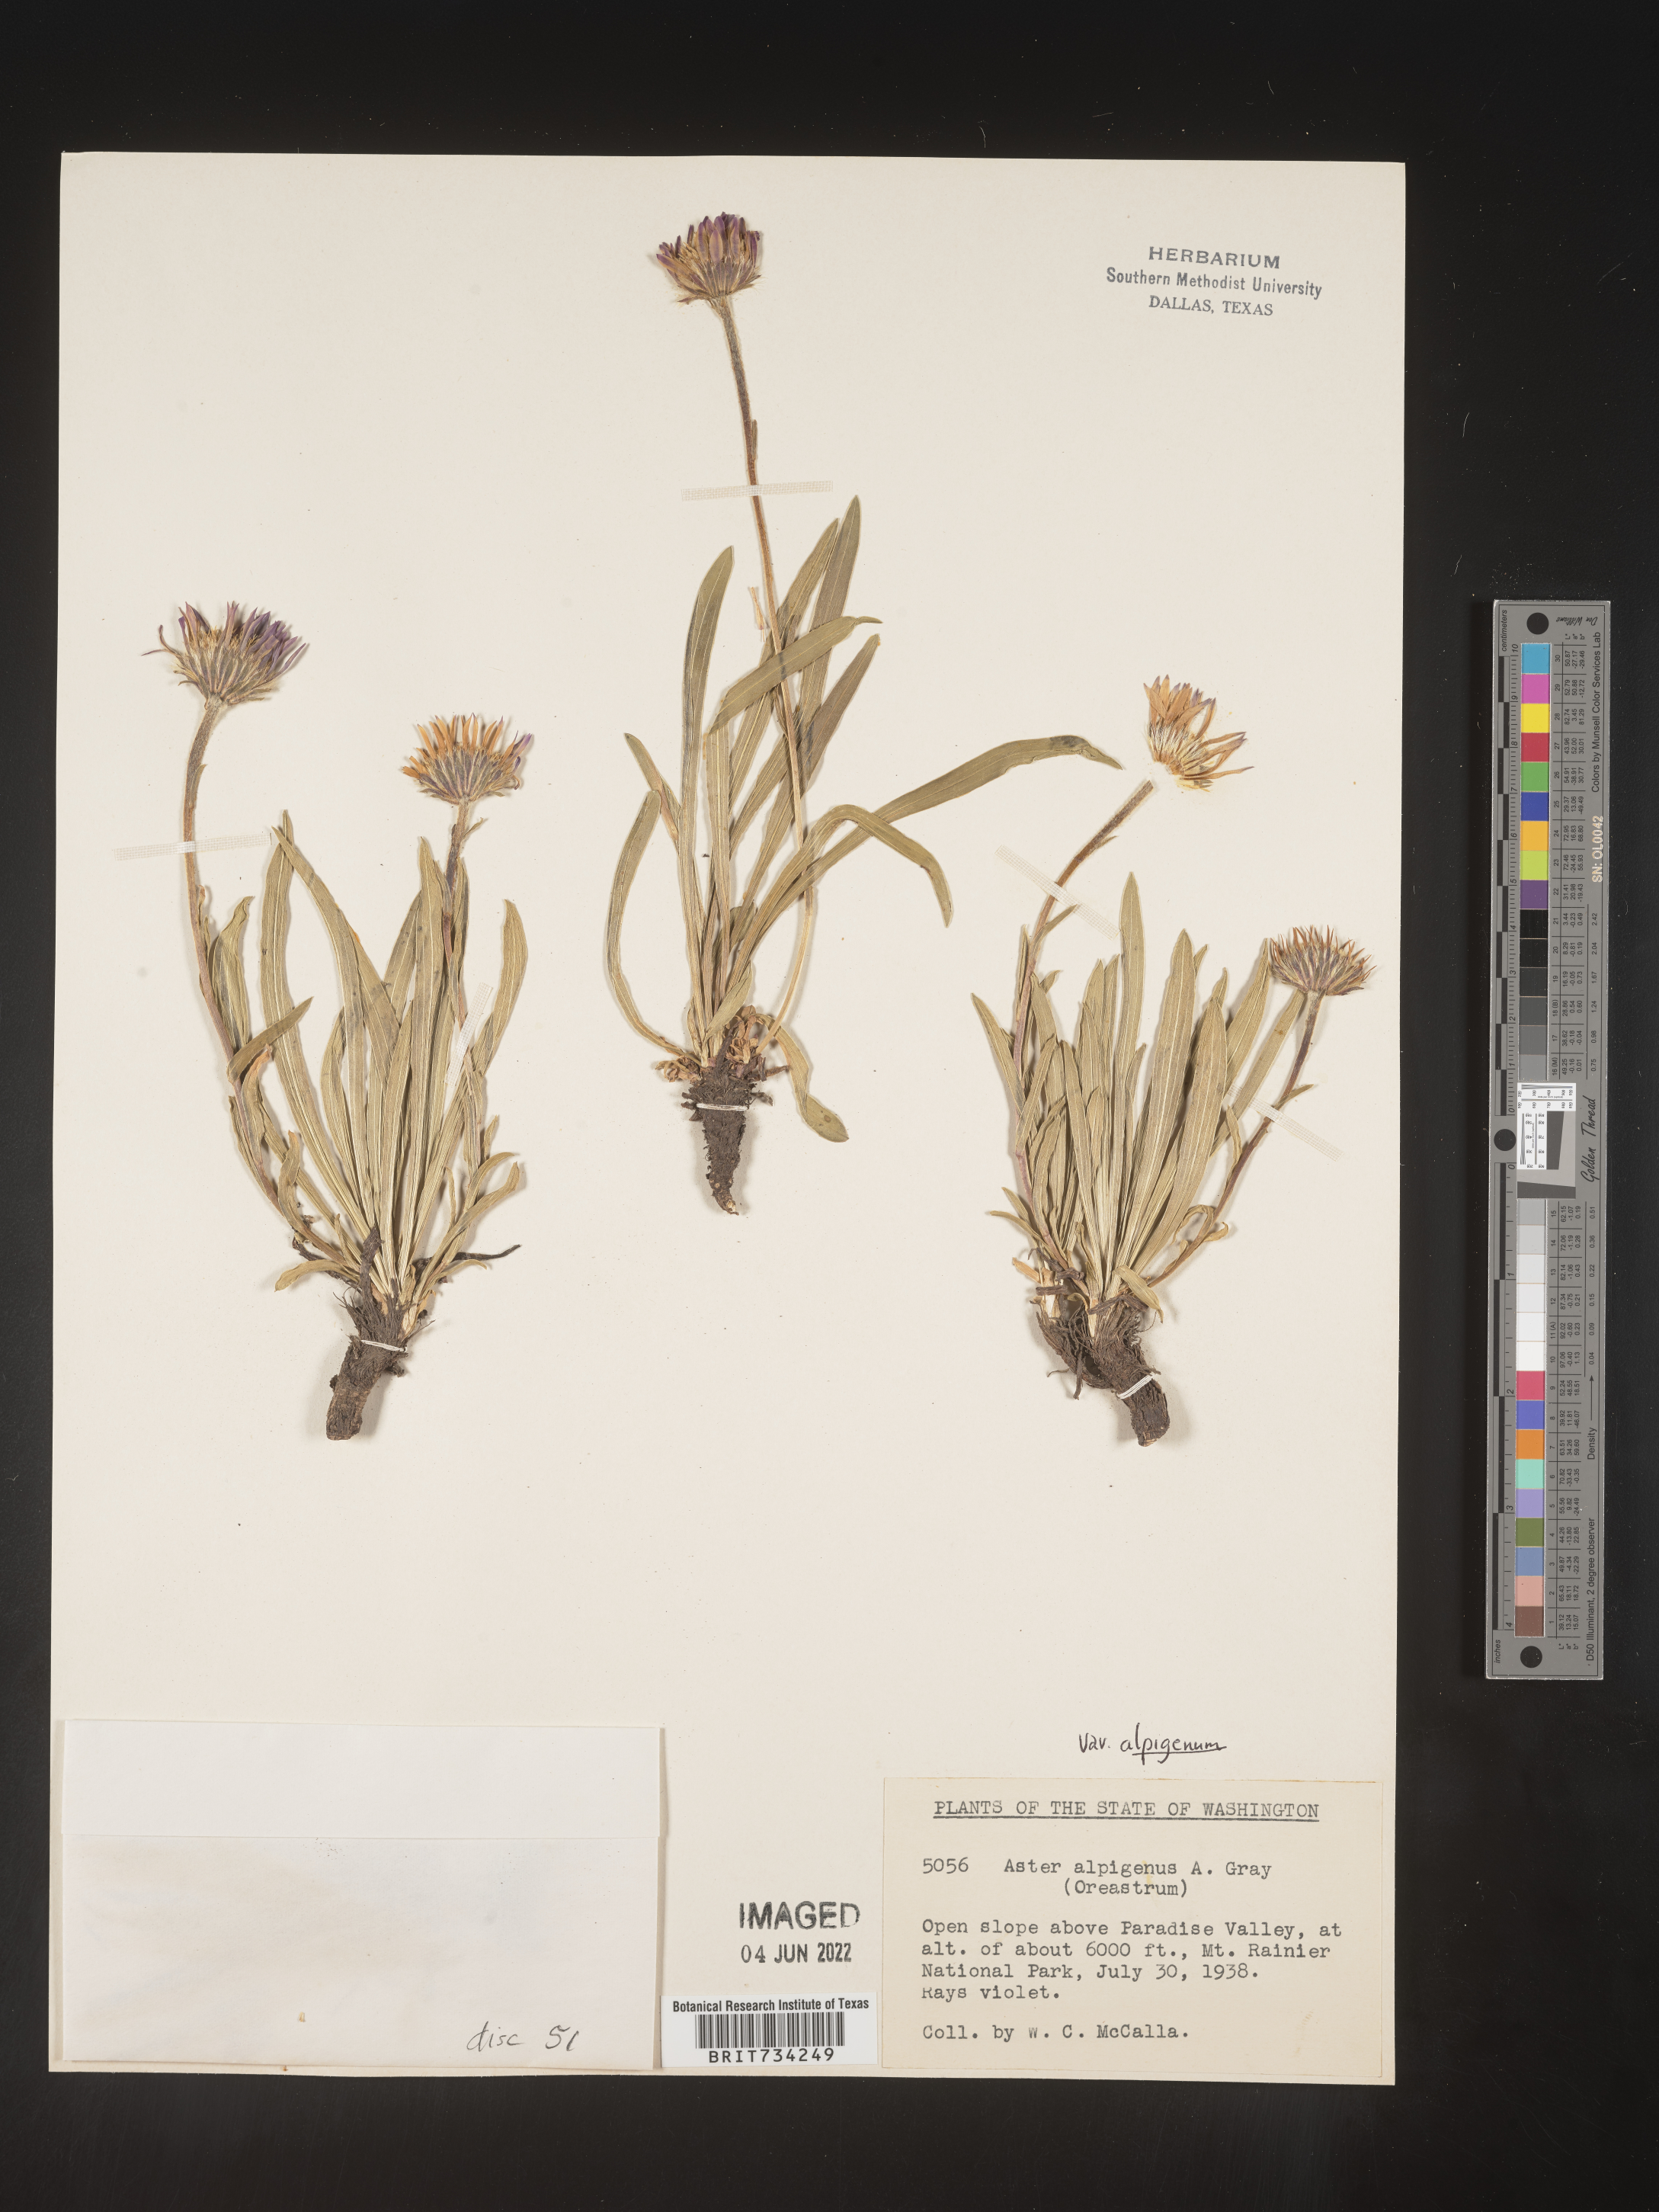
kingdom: Plantae
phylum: Tracheophyta
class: Magnoliopsida
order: Asterales
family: Asteraceae
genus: Oreostemma
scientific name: Oreostemma alpigenum
